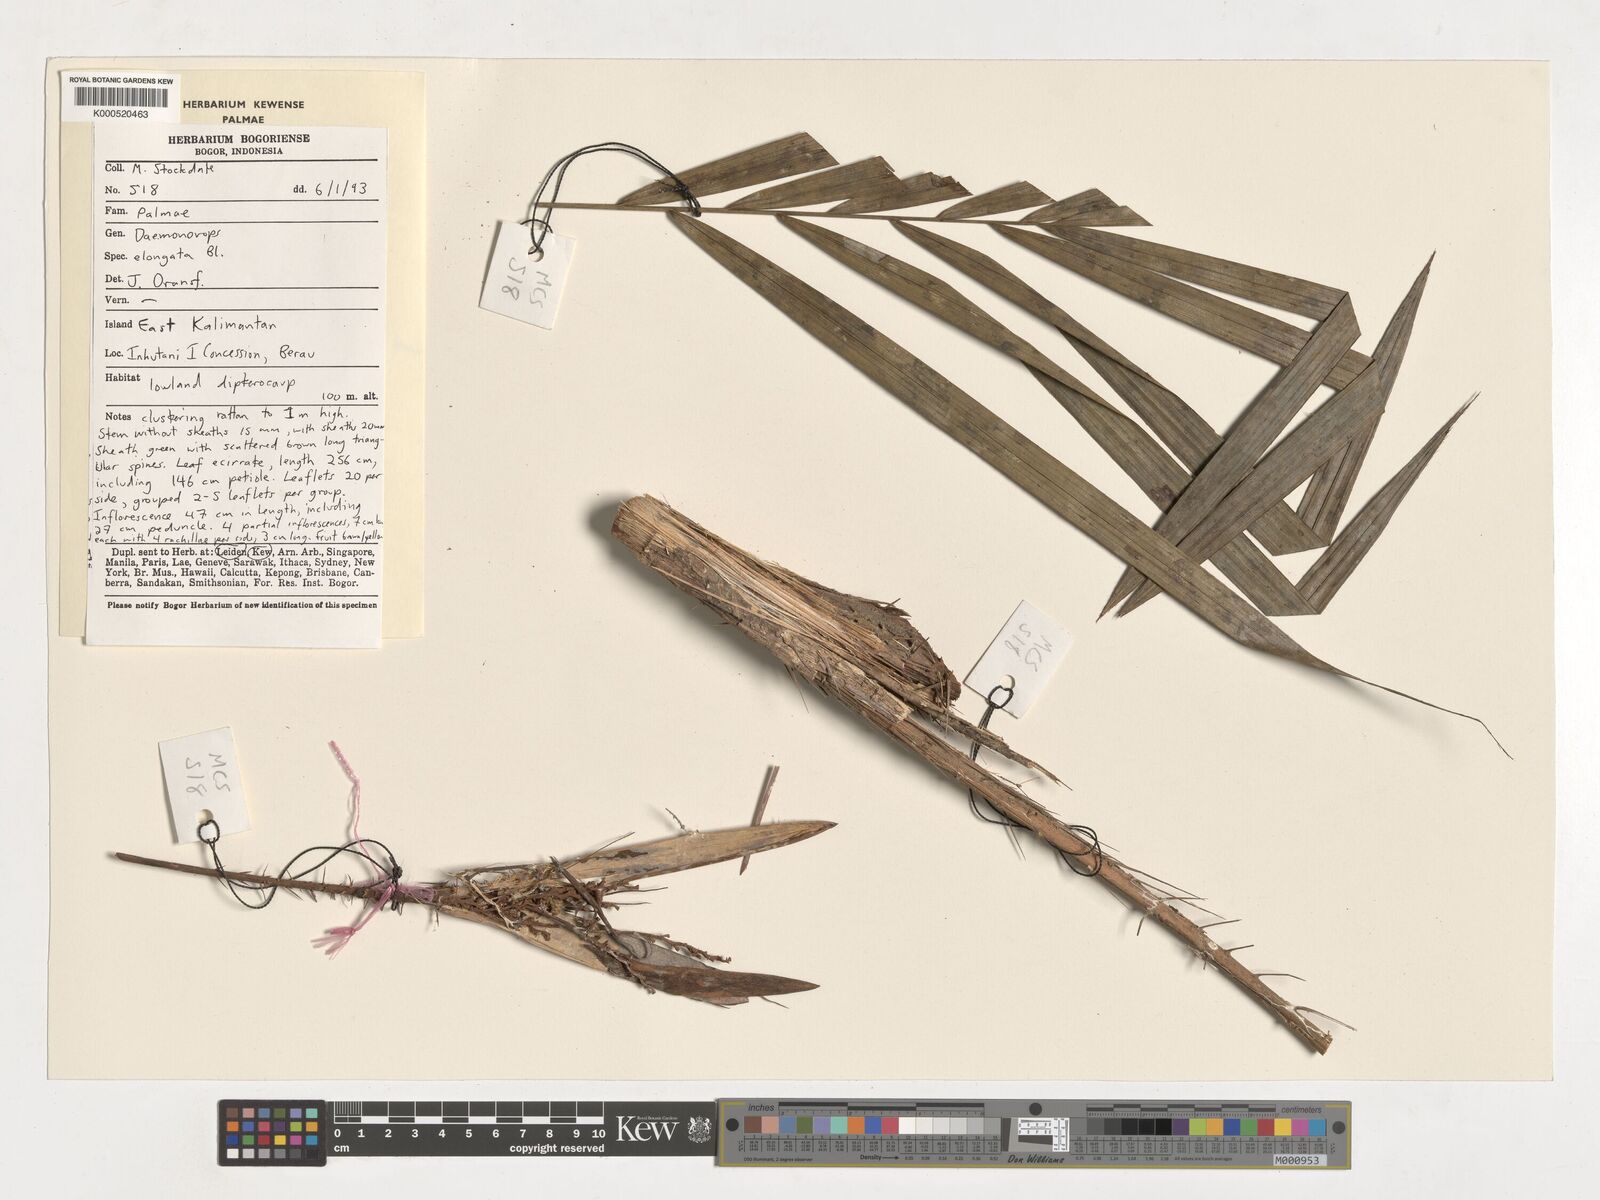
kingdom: Plantae
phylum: Tracheophyta
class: Liliopsida
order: Arecales
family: Arecaceae
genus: Calamus
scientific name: Calamus oblongus
